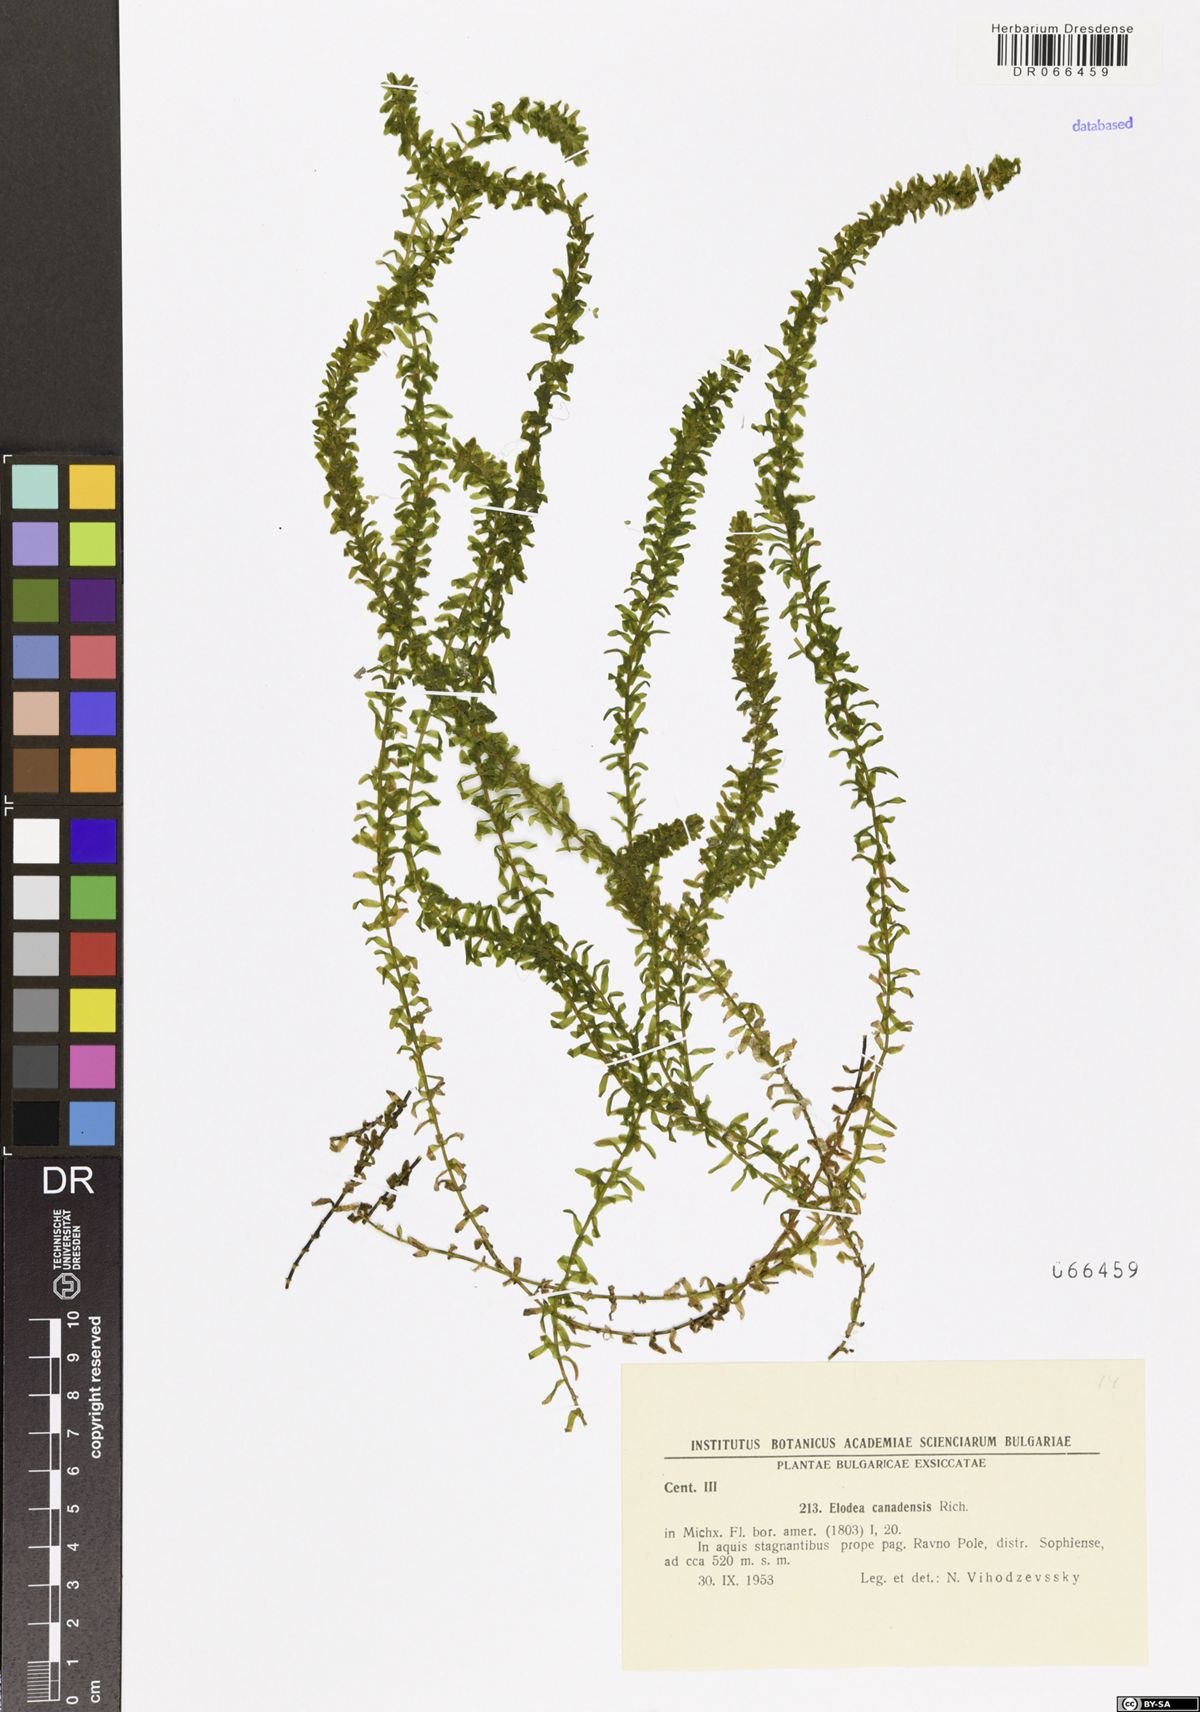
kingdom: Plantae
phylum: Tracheophyta
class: Liliopsida
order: Alismatales
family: Hydrocharitaceae
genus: Elodea
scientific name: Elodea canadensis
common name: Canadian waterweed
